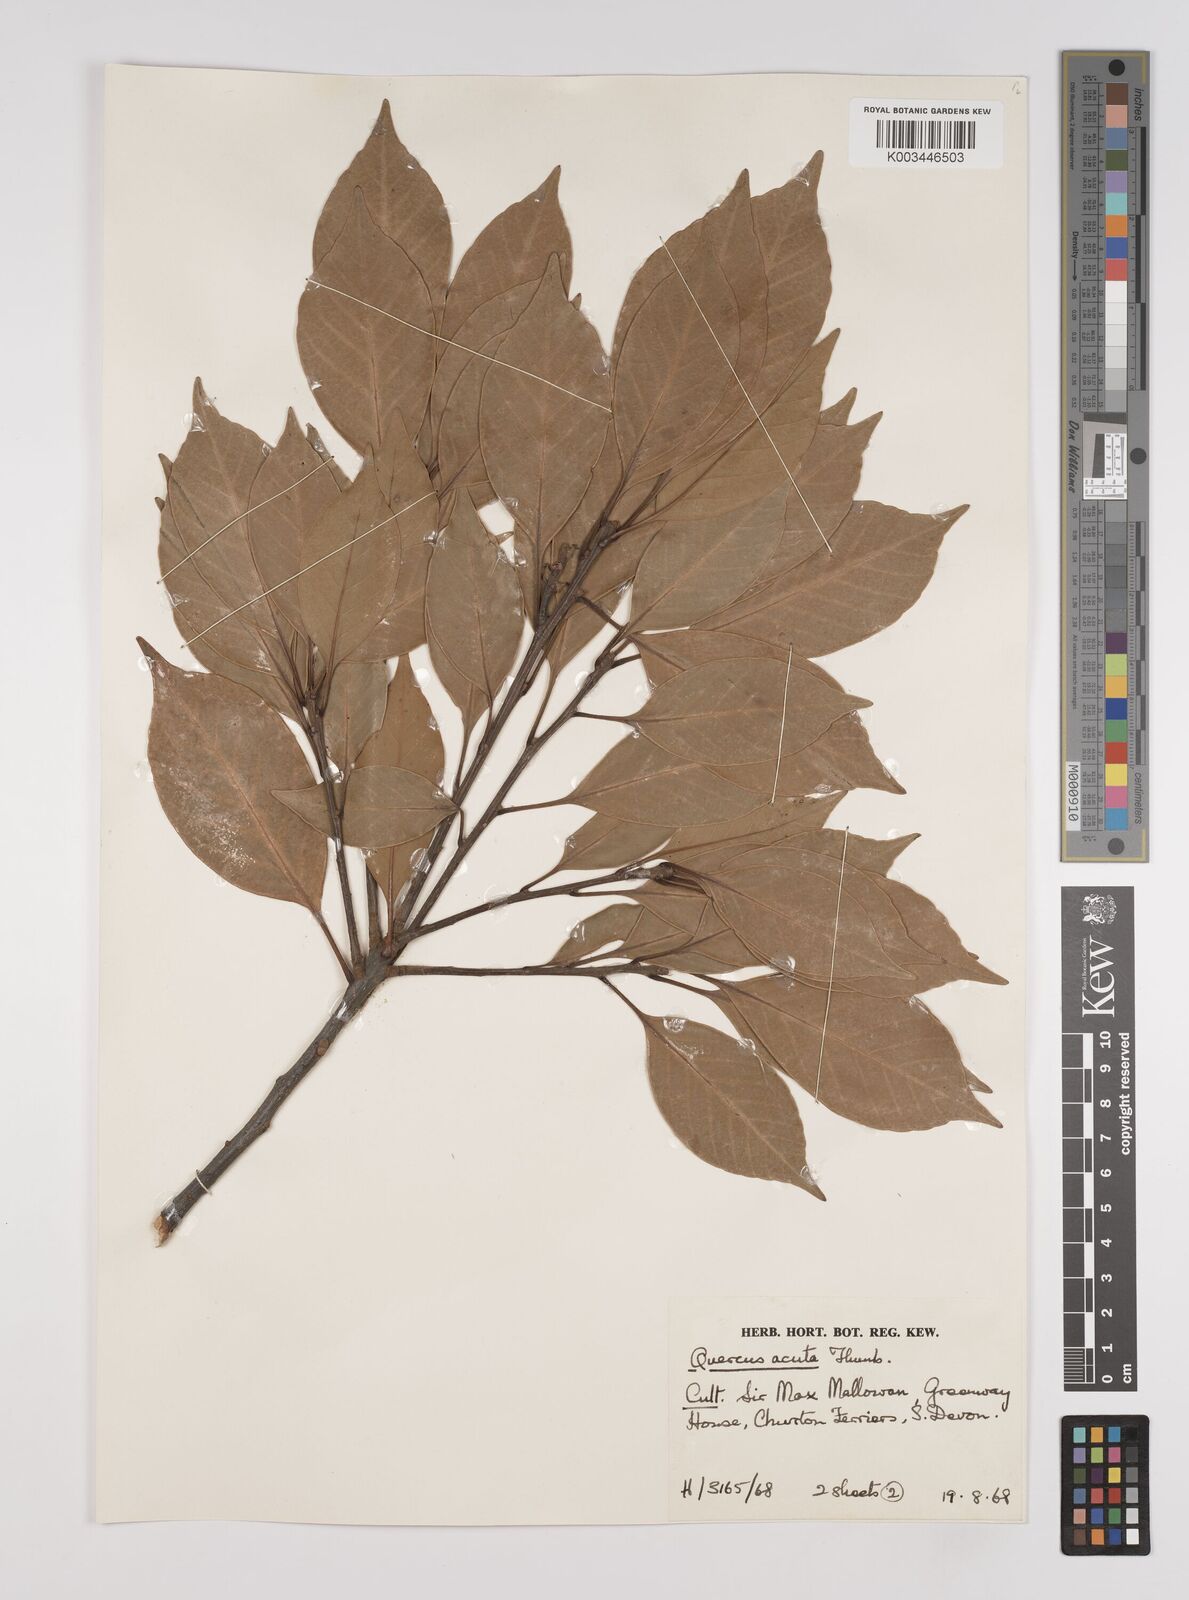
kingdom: Plantae
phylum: Tracheophyta
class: Magnoliopsida
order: Fagales
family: Fagaceae
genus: Quercus
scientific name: Quercus coccinea
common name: Scarlet oak
